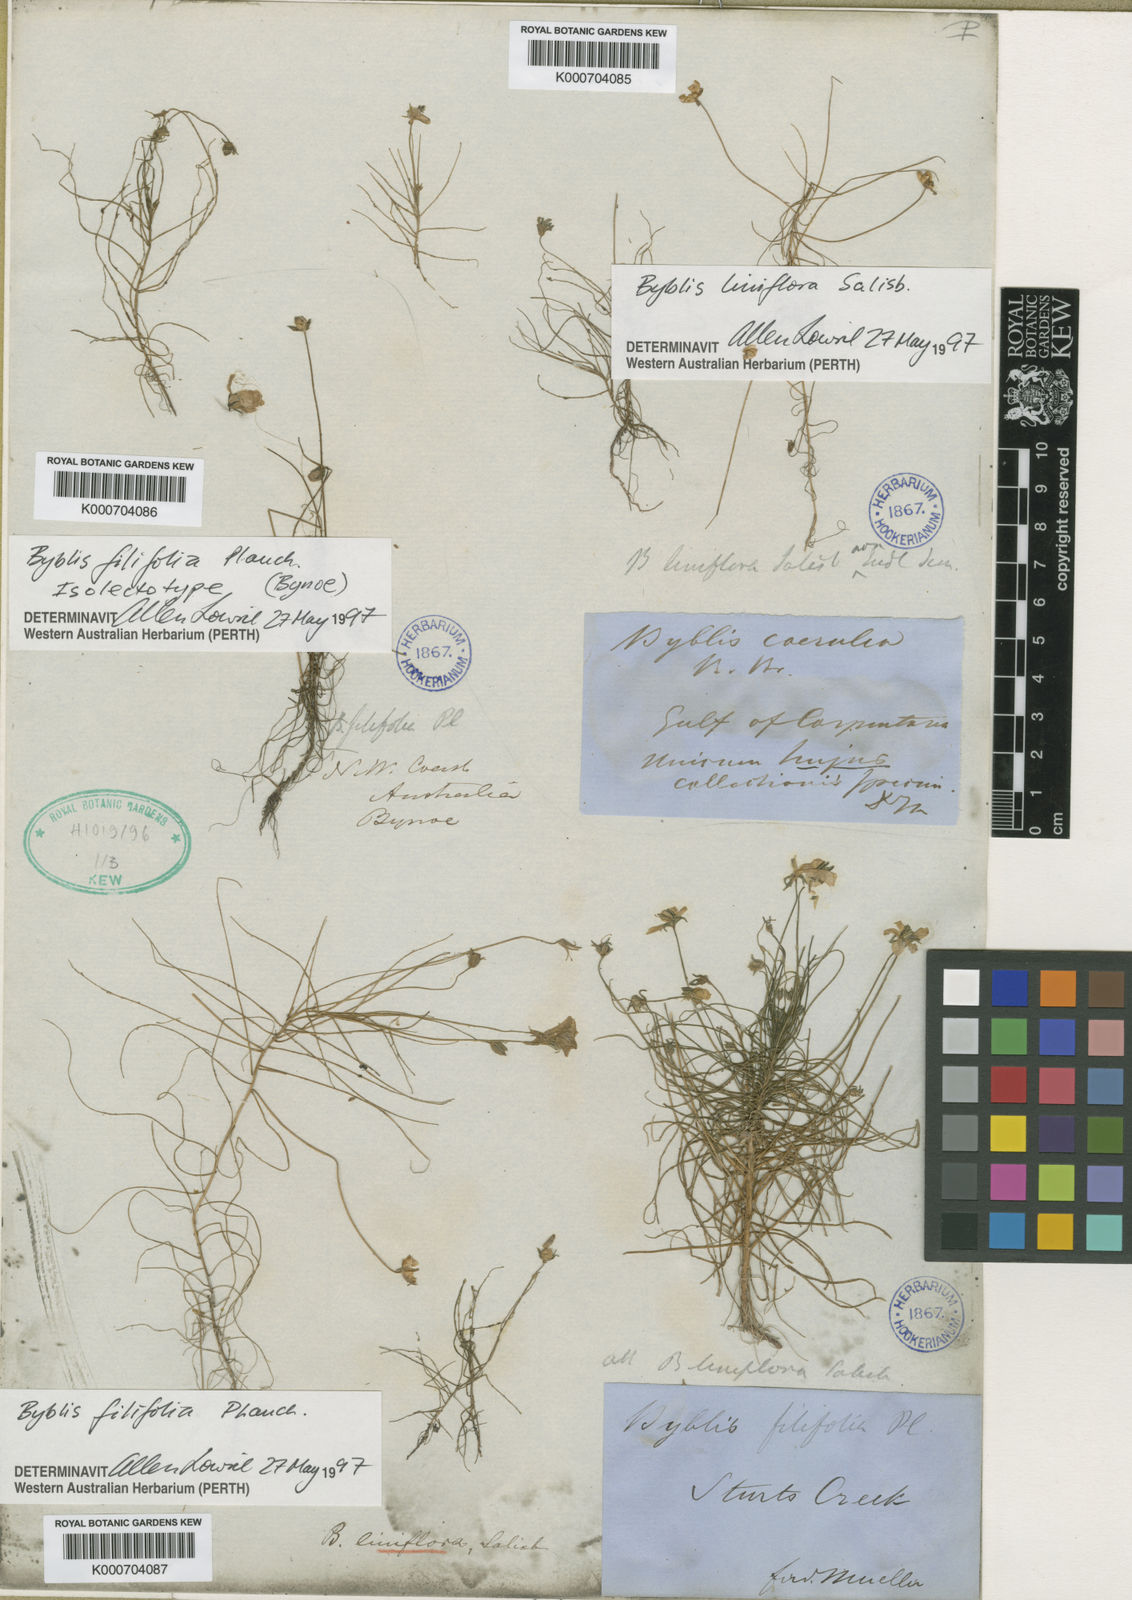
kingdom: Plantae
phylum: Tracheophyta
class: Magnoliopsida
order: Lamiales
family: Byblidaceae
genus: Byblis
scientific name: Byblis liniflora
